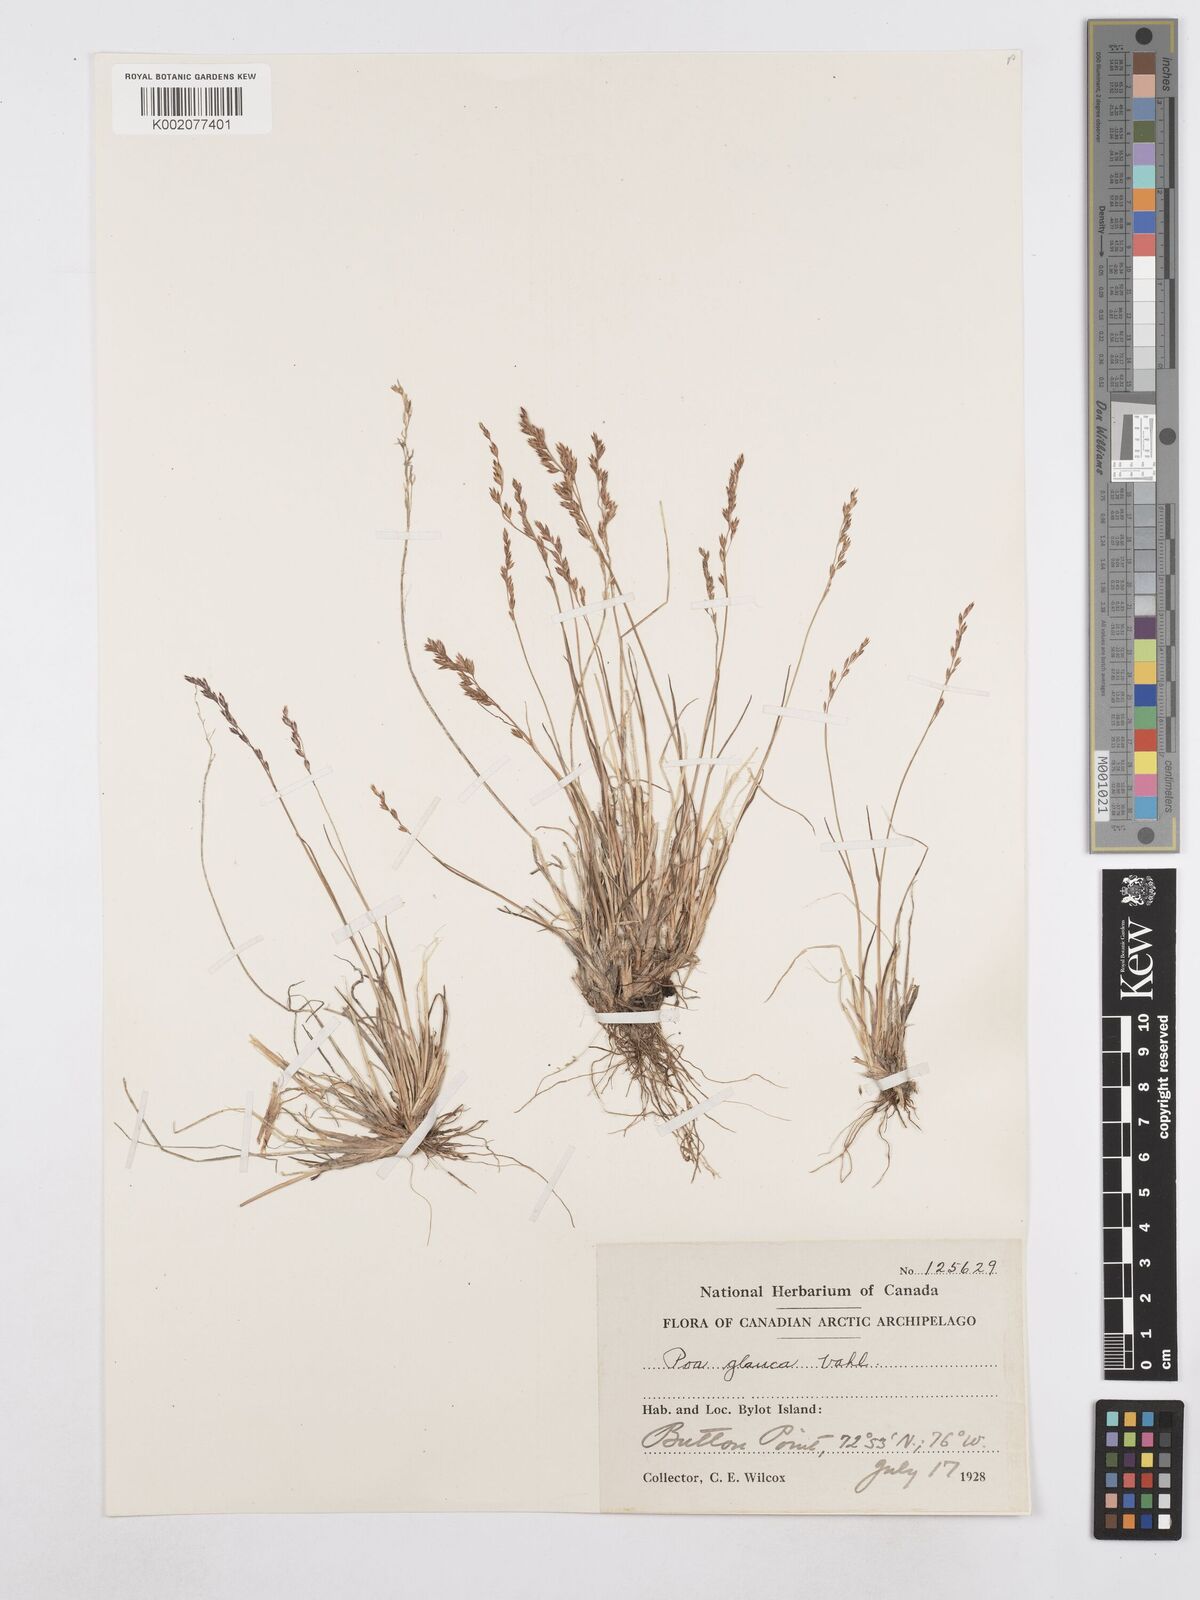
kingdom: Plantae
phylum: Tracheophyta
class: Liliopsida
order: Poales
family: Poaceae
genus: Poa
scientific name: Poa glauca
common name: Glaucous bluegrass
